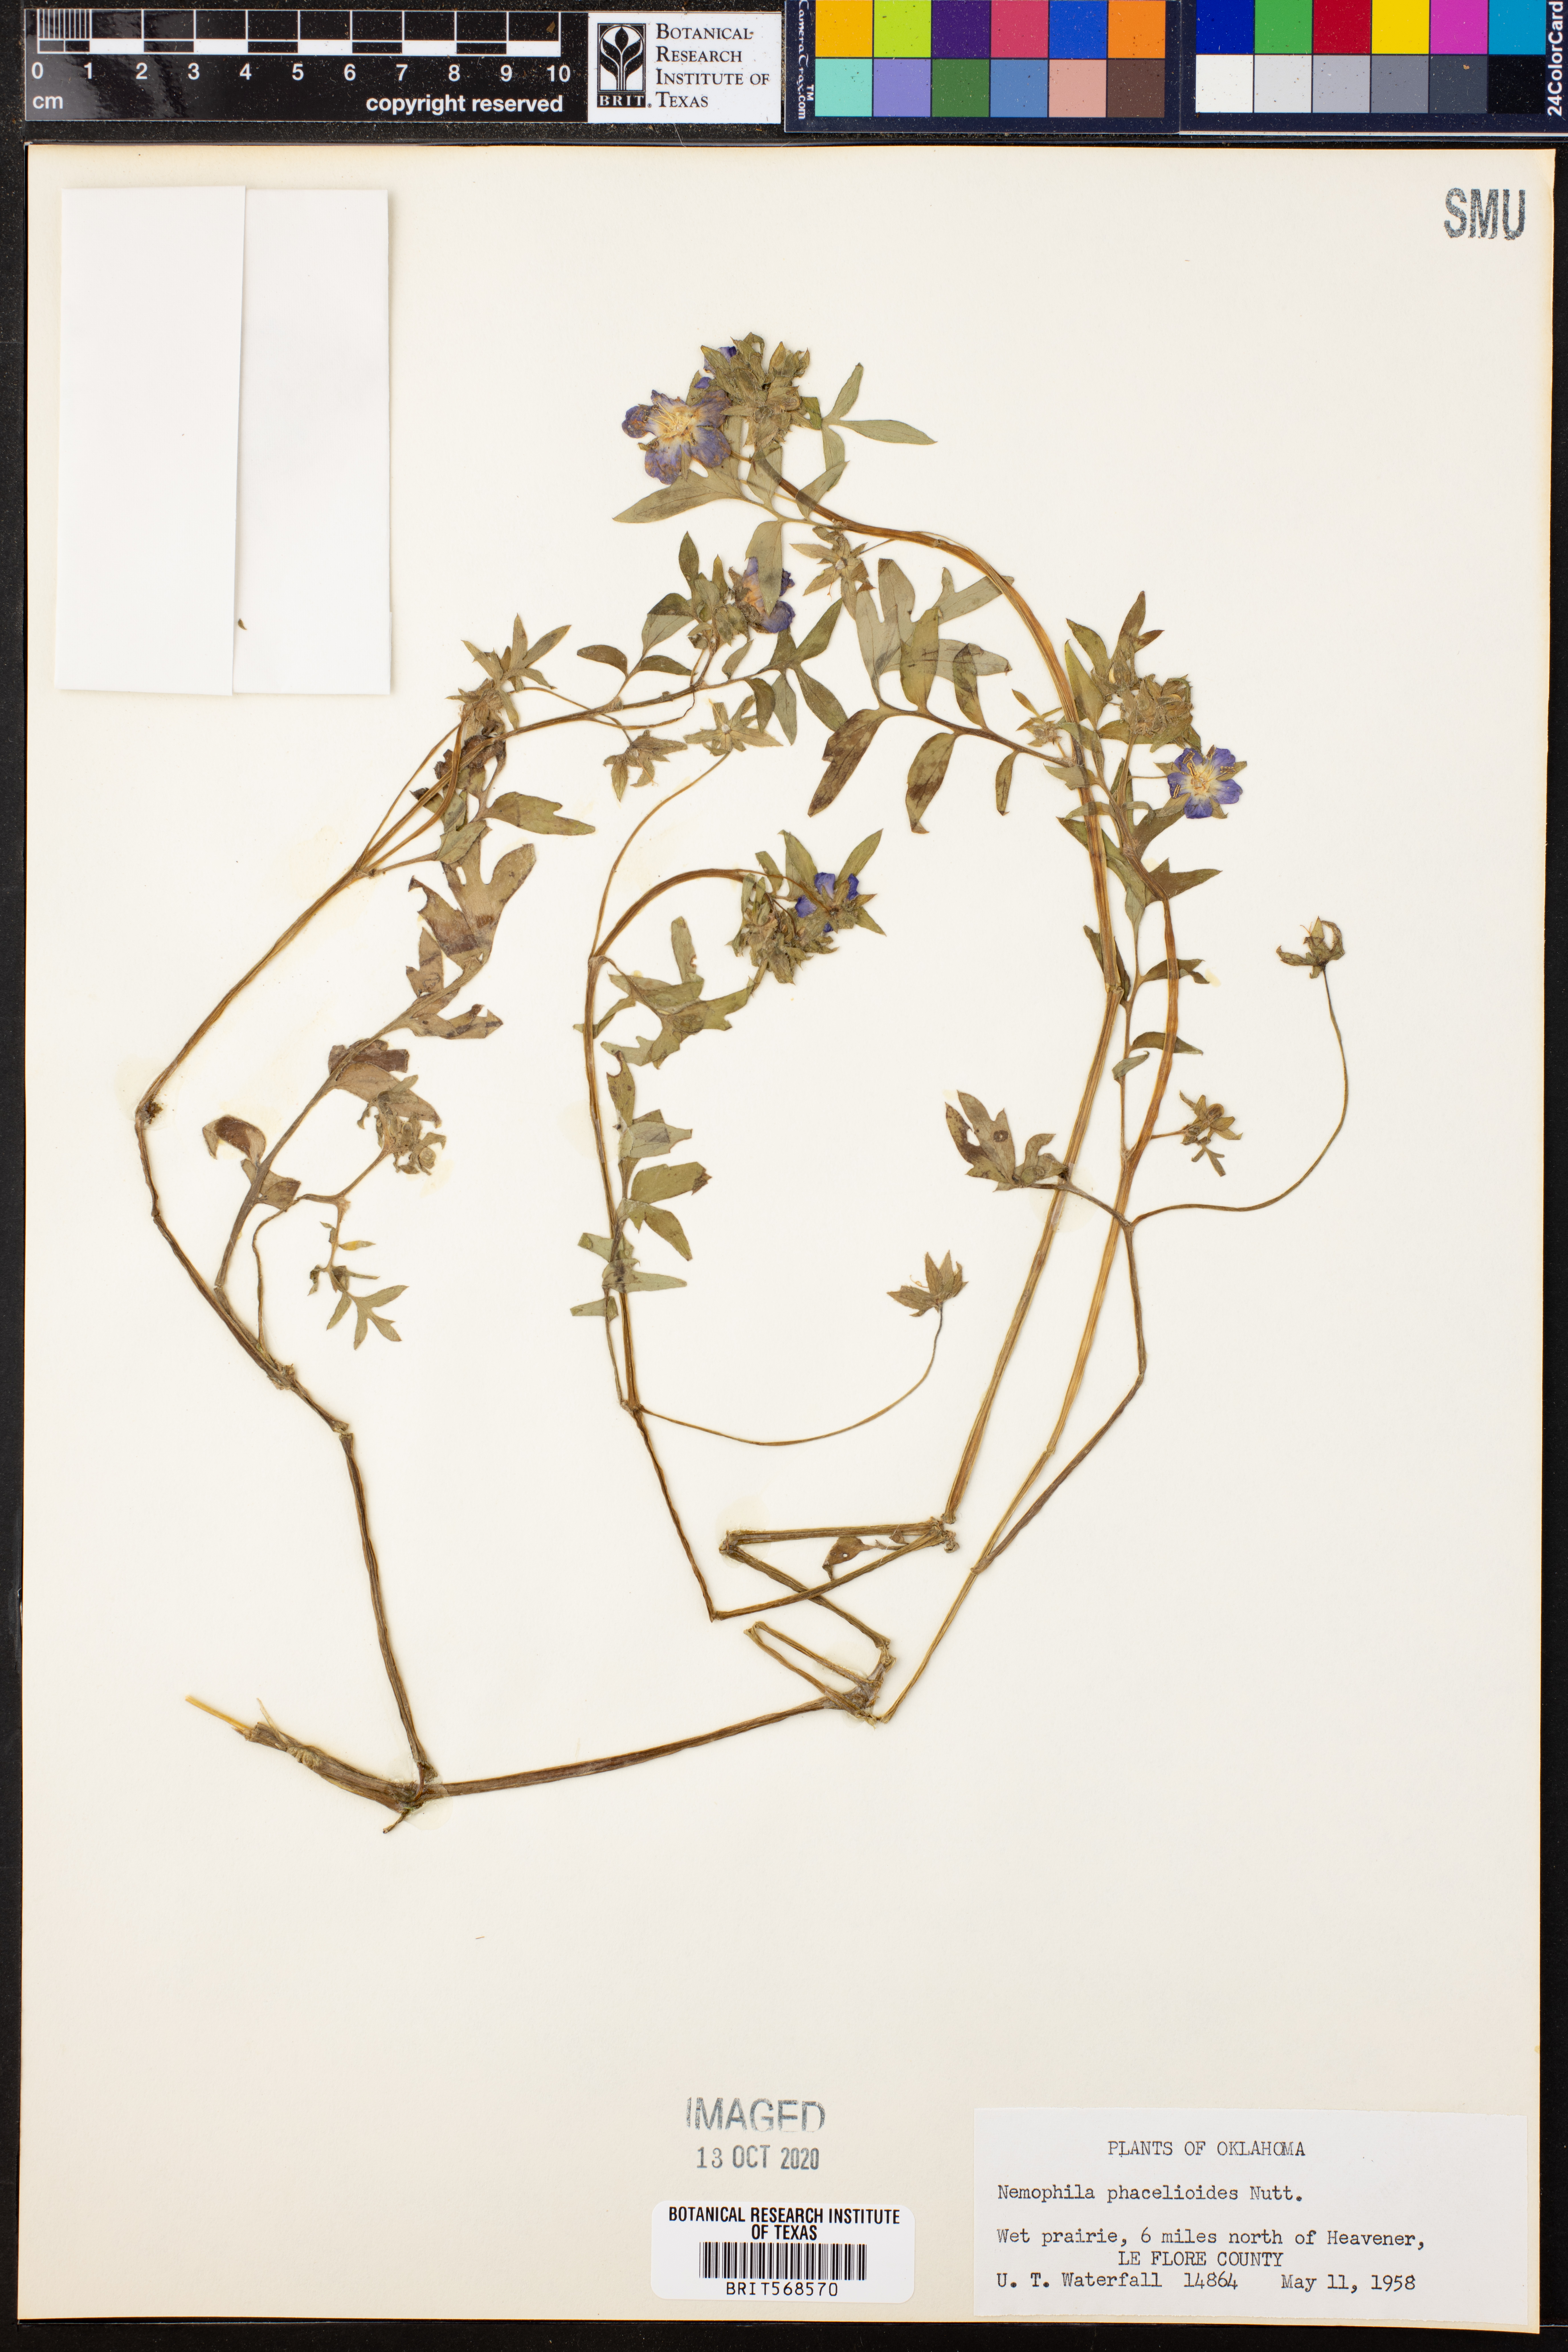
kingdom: Plantae
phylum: Tracheophyta
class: Magnoliopsida
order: Boraginales
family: Hydrophyllaceae
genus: Nemophila
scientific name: Nemophila phacelioides
